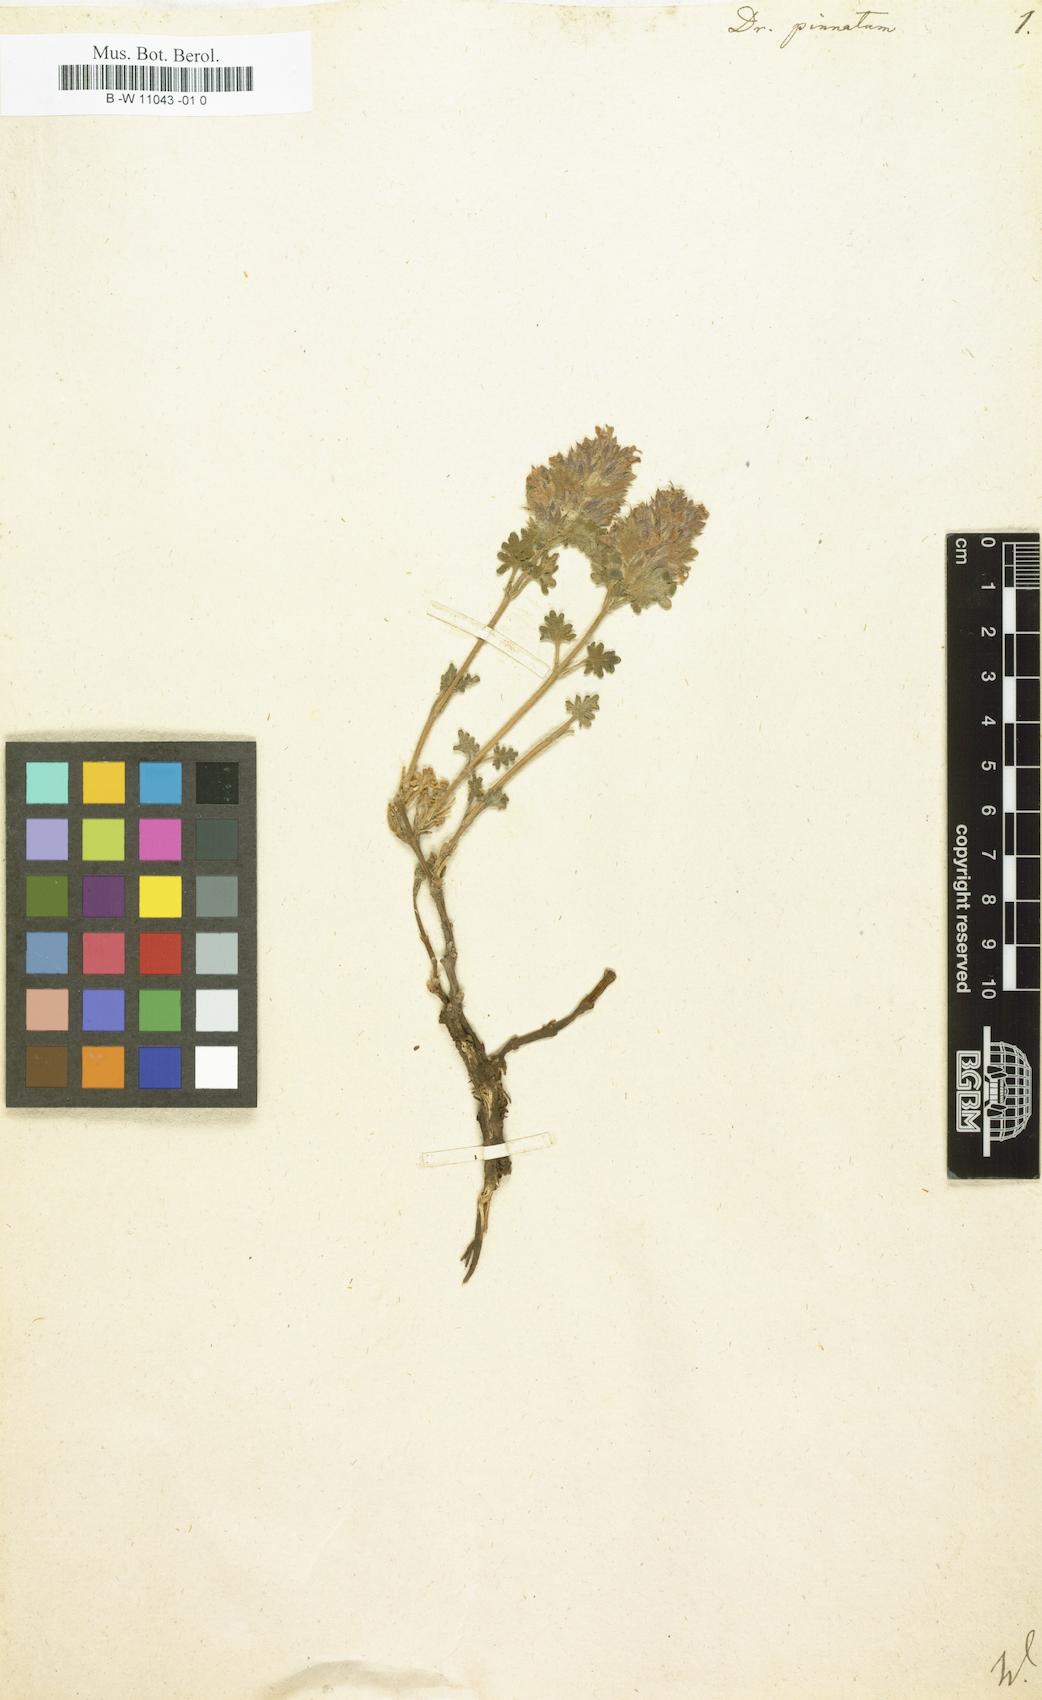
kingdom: Plantae
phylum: Tracheophyta
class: Magnoliopsida
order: Lamiales
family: Lamiaceae
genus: Dracocephalum
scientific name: Dracocephalum pinnatum
